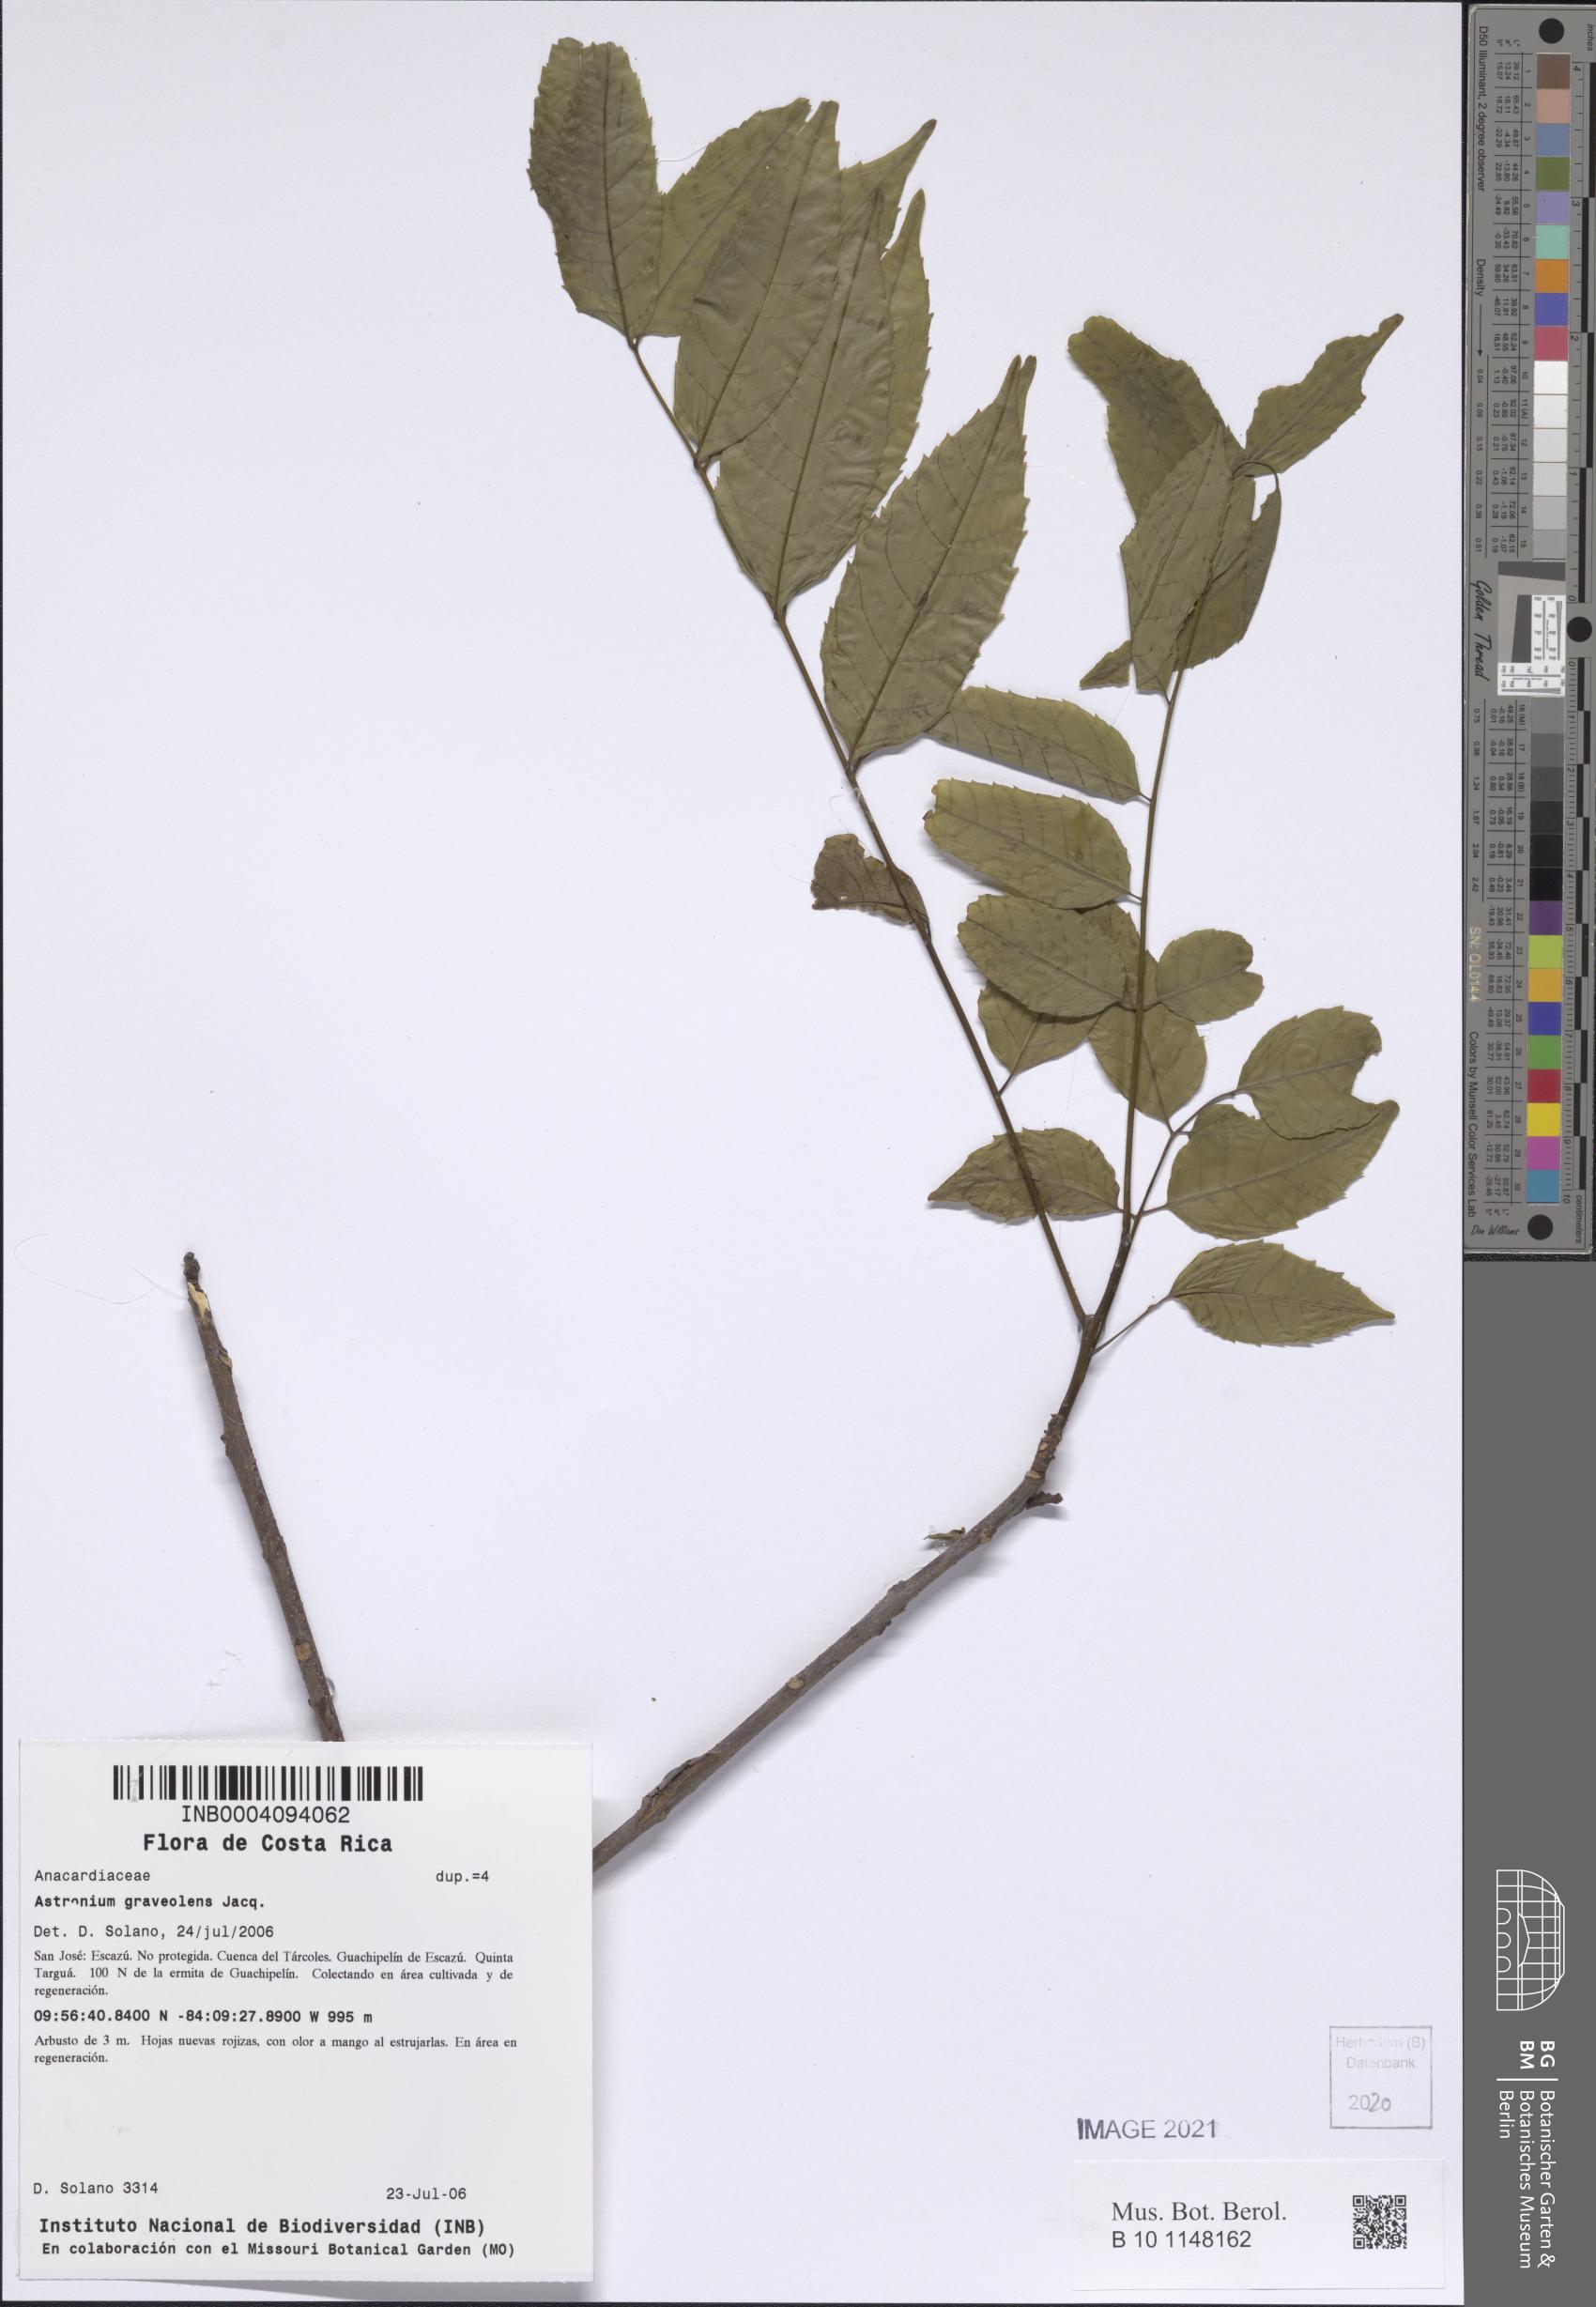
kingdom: Plantae
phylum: Tracheophyta
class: Magnoliopsida
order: Sapindales
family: Anacardiaceae
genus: Astronium
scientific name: Astronium graveolens
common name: Glassywood
